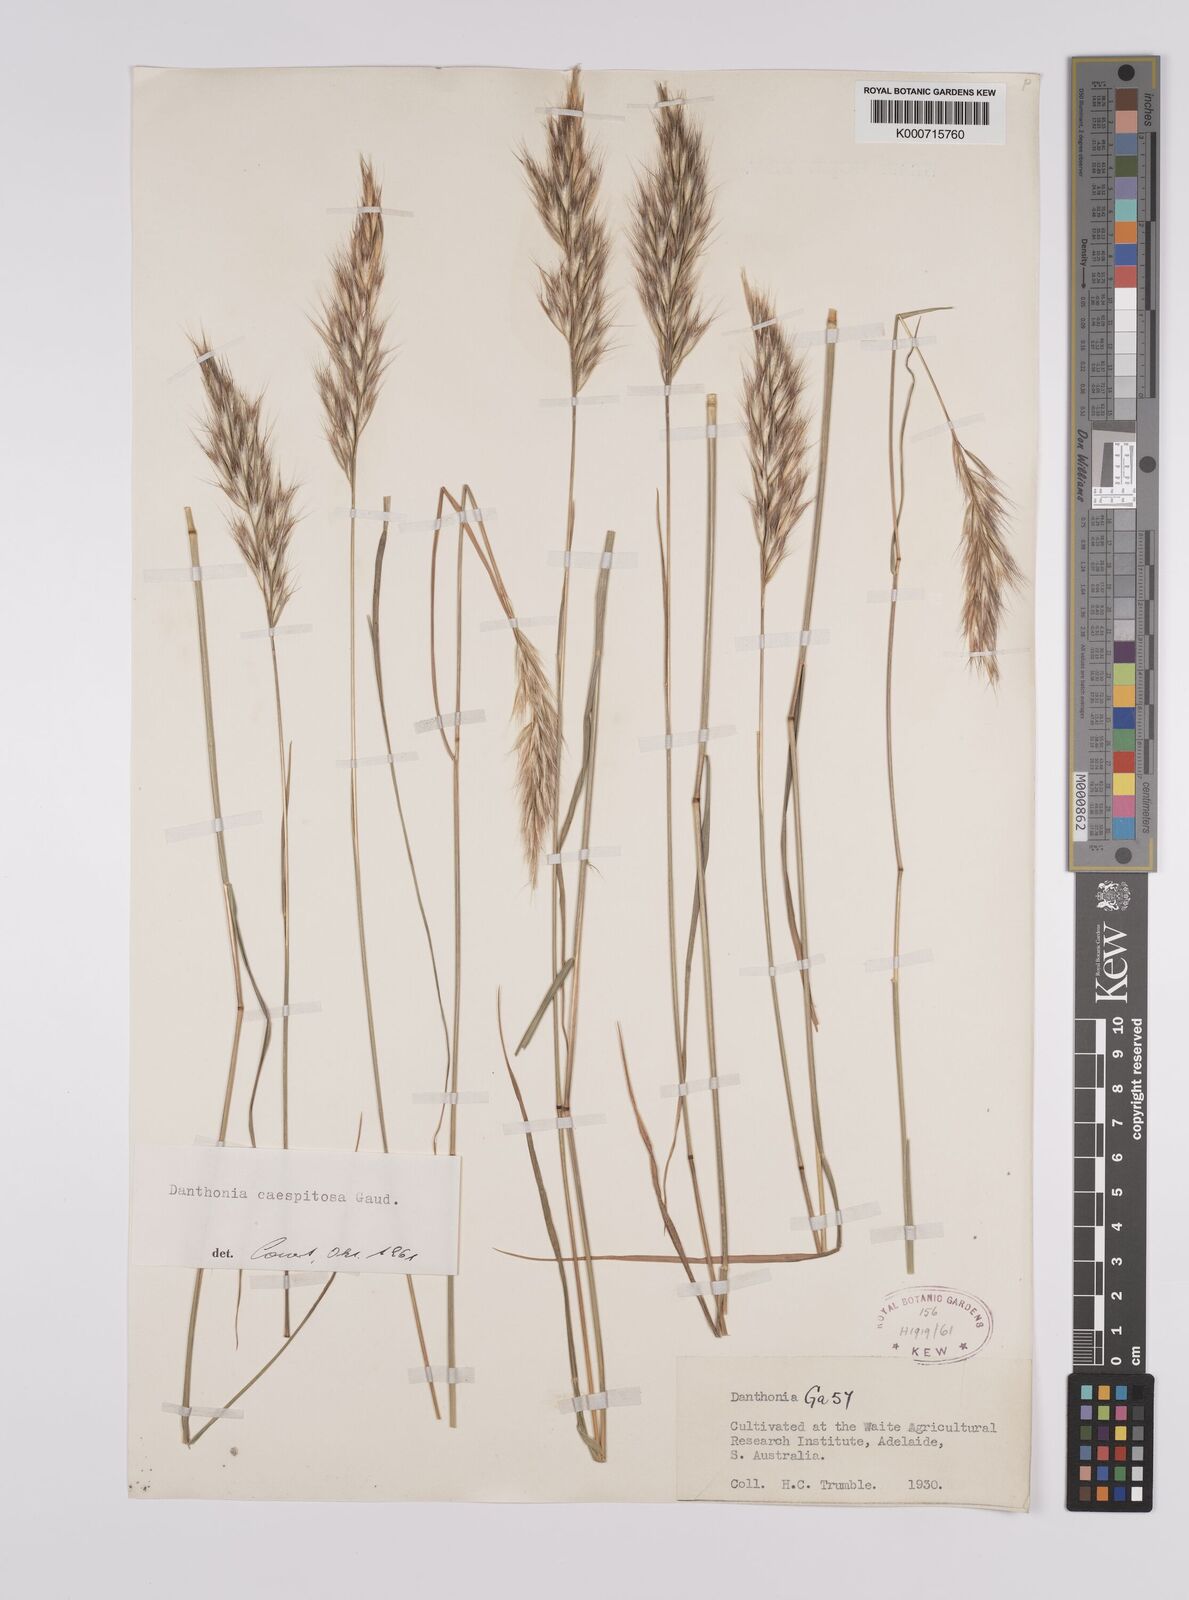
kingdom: Plantae
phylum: Tracheophyta
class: Liliopsida
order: Poales
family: Poaceae
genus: Rytidosperma
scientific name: Rytidosperma caespitosum
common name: Tufted wallaby grass
